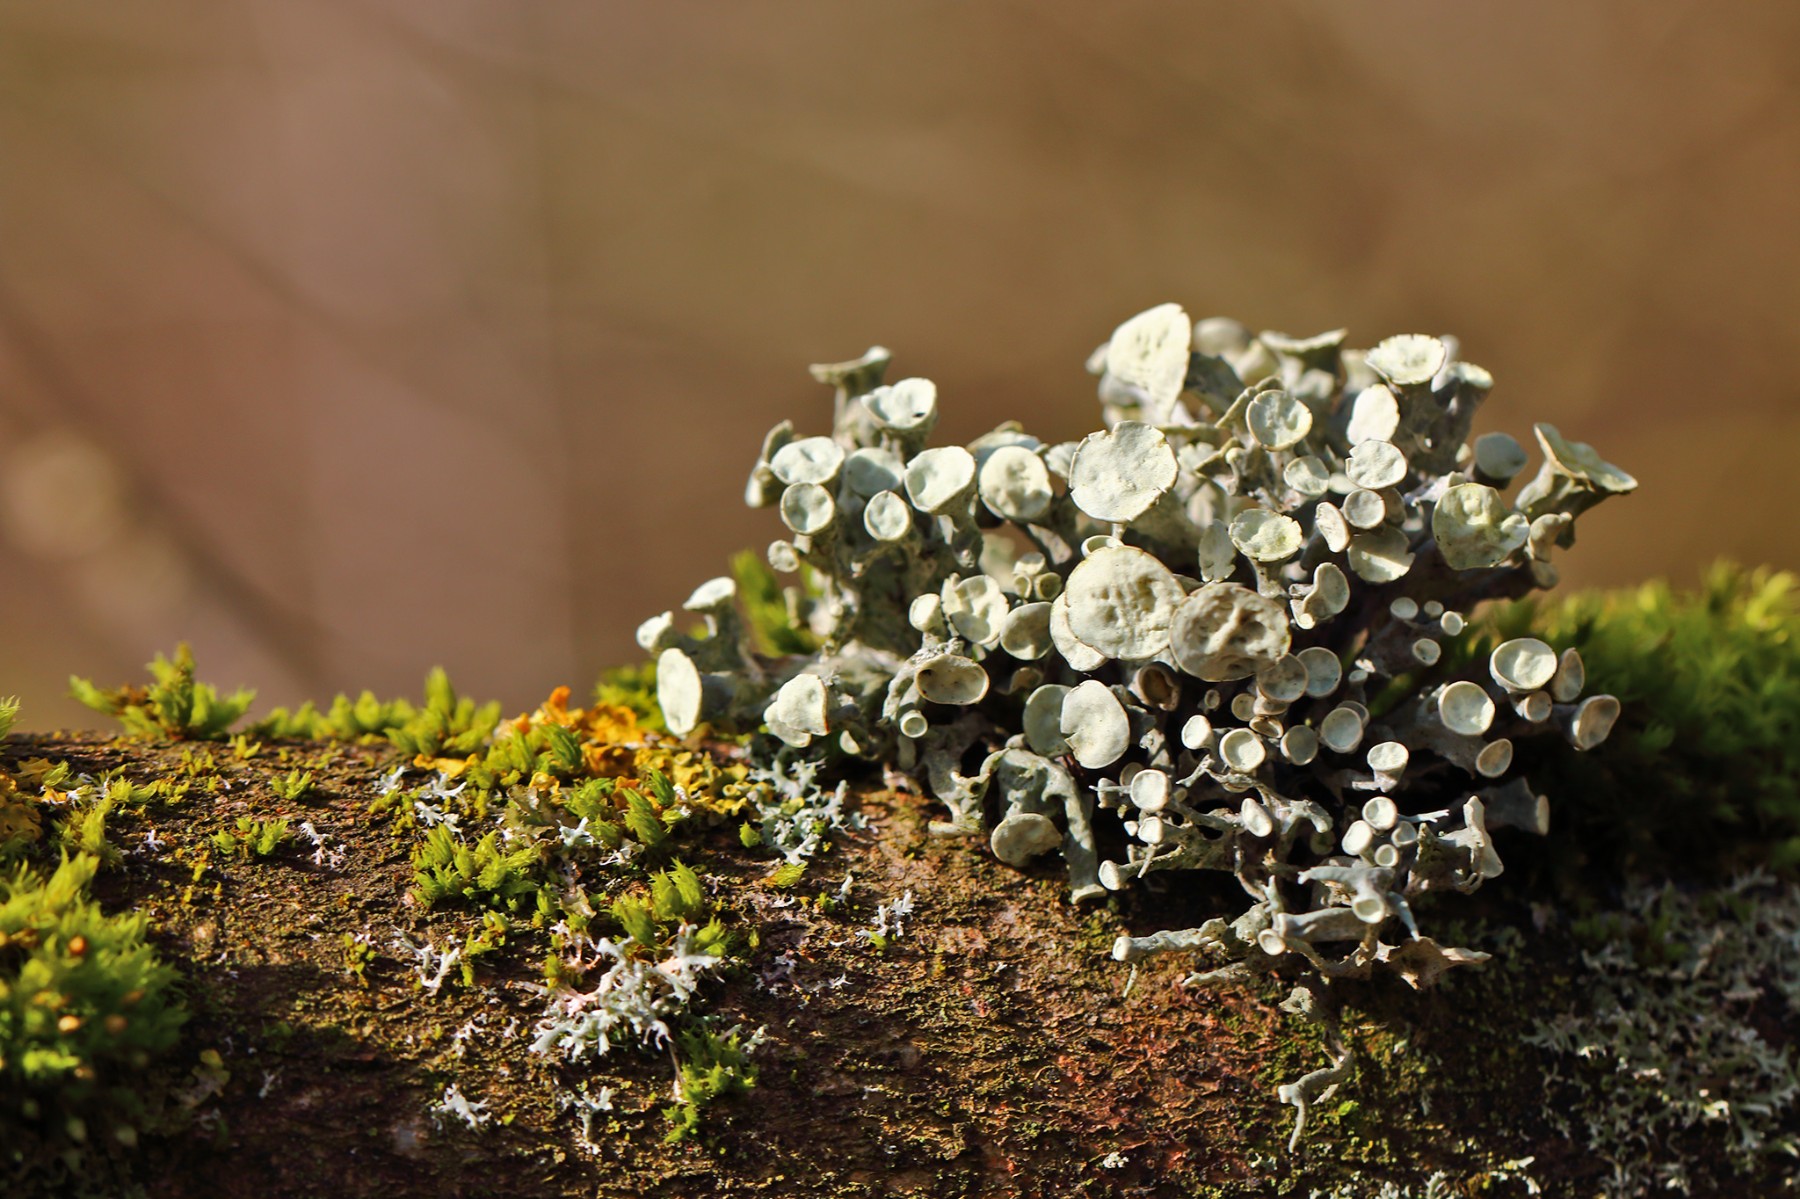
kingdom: Fungi
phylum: Ascomycota
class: Lecanoromycetes
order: Lecanorales
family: Ramalinaceae
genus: Ramalina
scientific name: Ramalina fastigiata
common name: tue-grenlav
